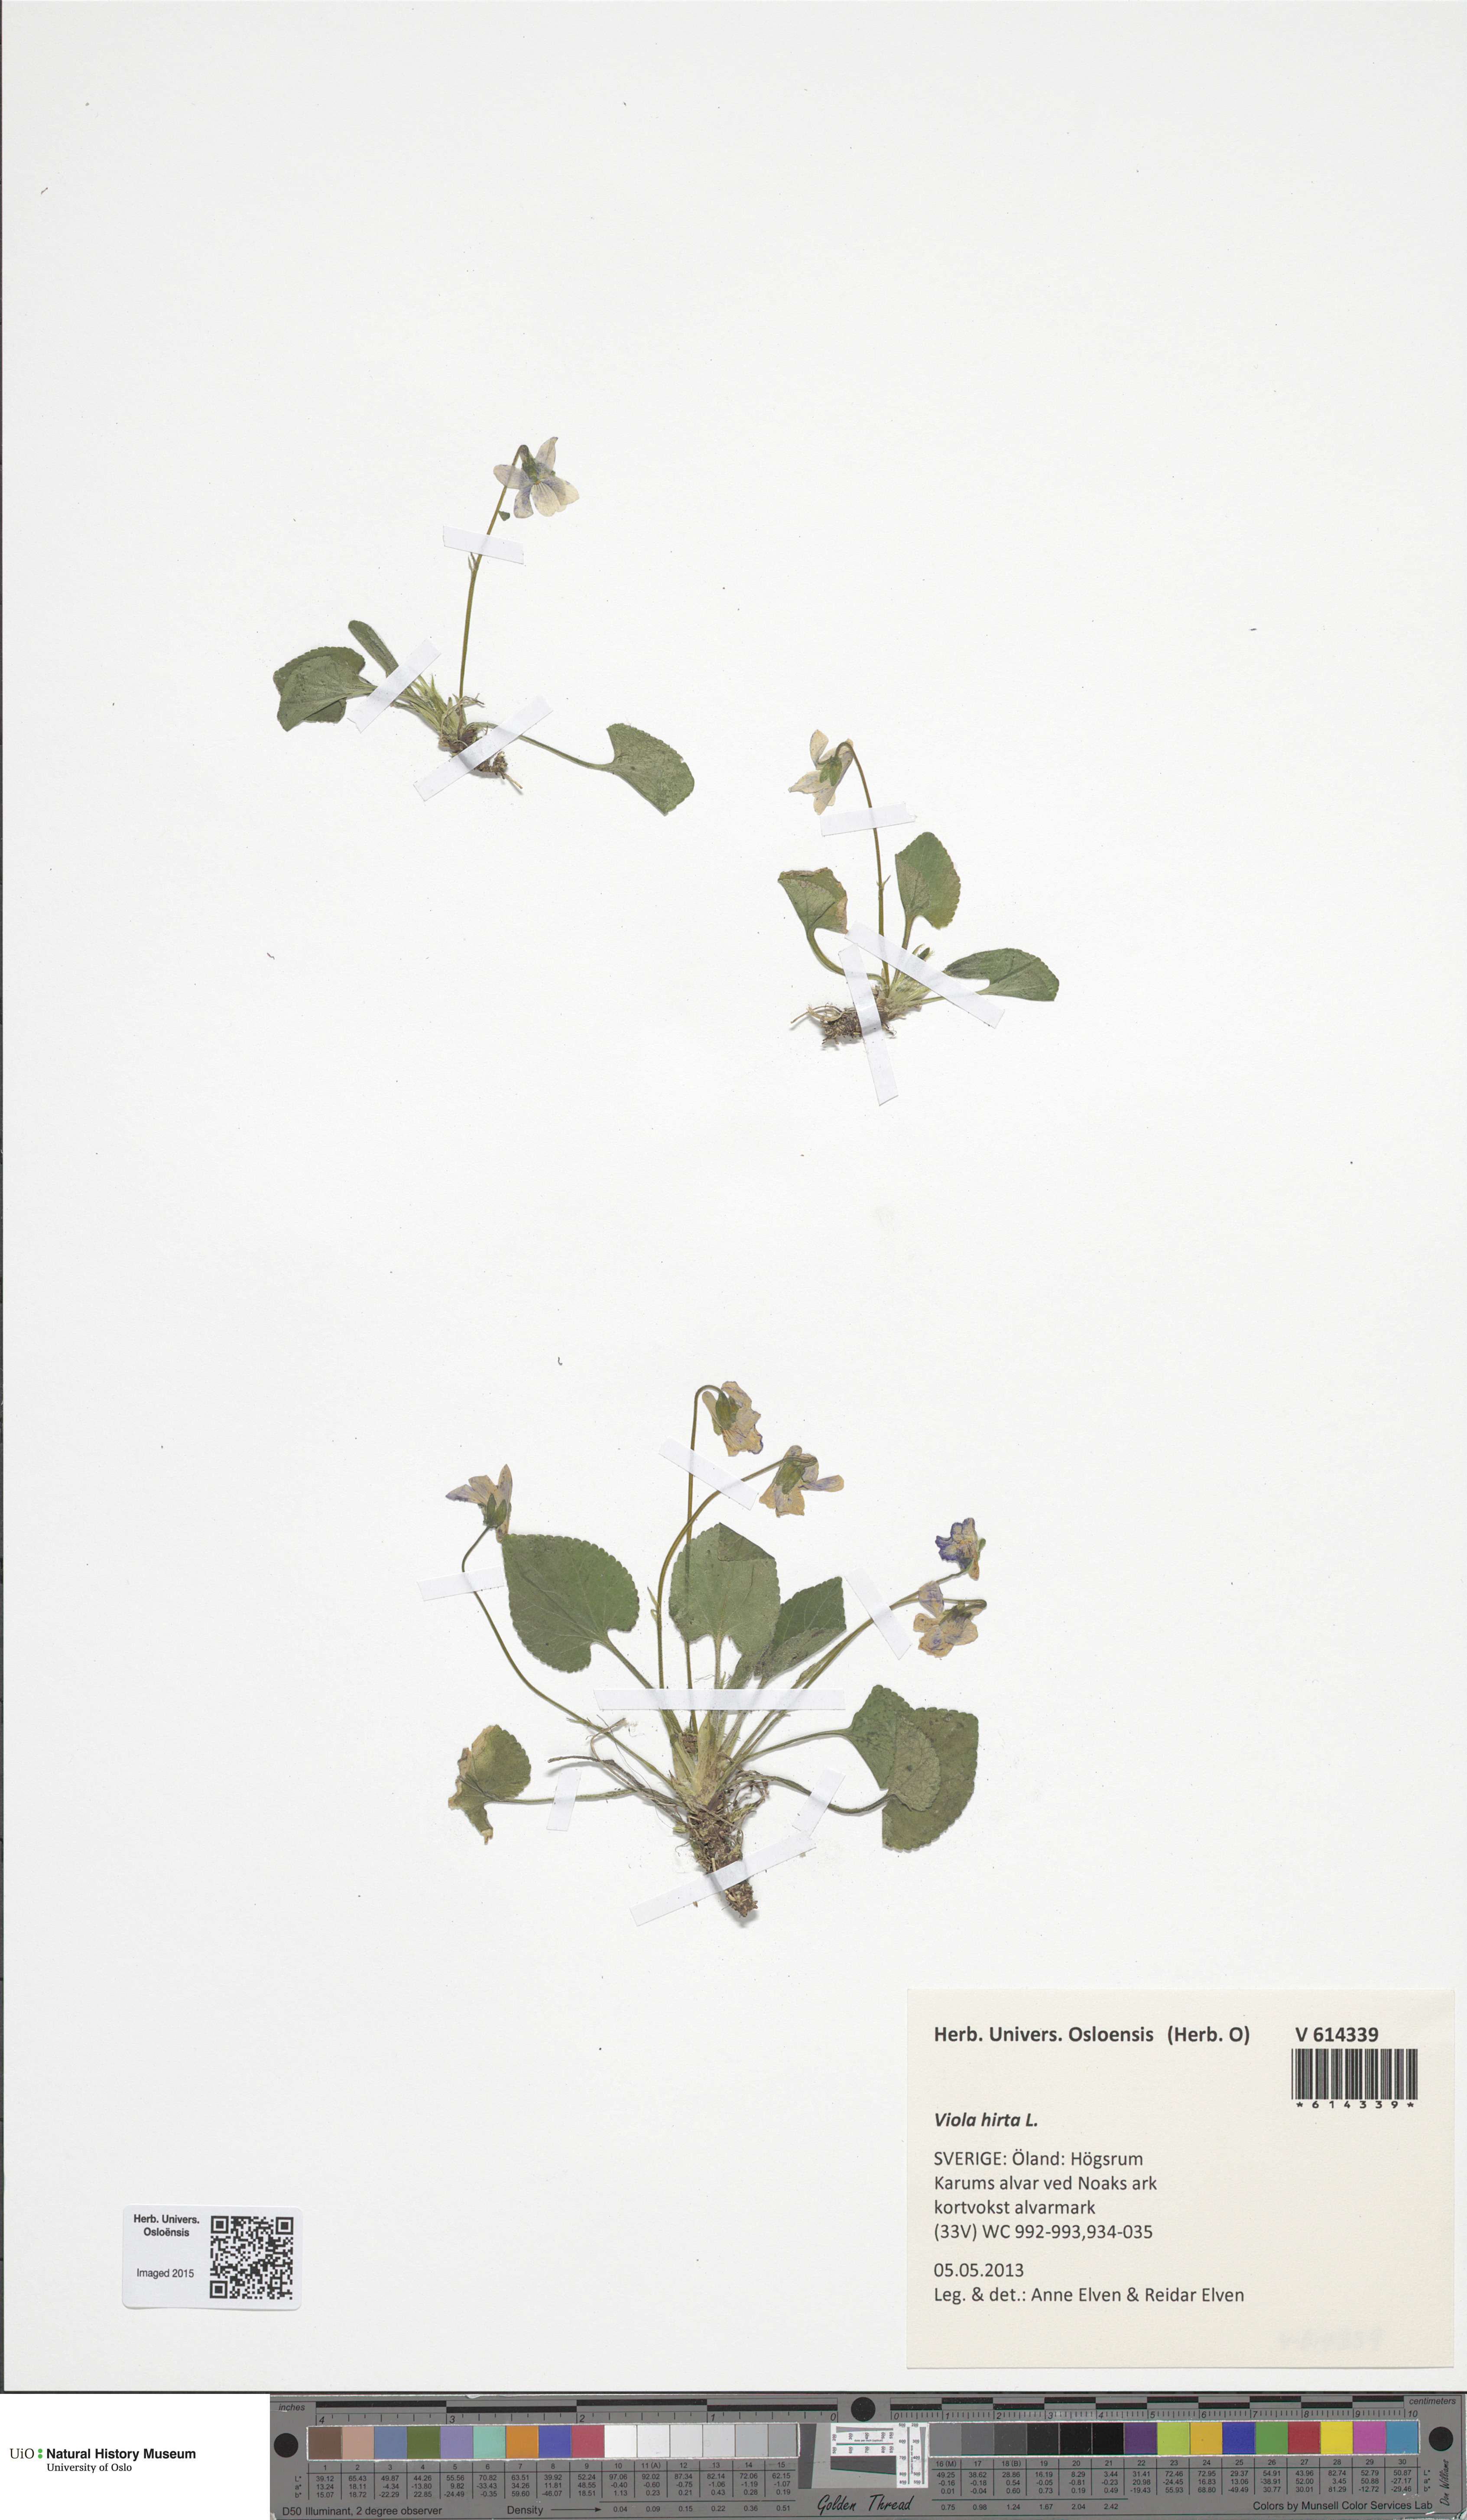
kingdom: Plantae
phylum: Tracheophyta
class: Magnoliopsida
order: Malpighiales
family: Violaceae
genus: Viola
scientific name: Viola hirta
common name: Hairy violet
